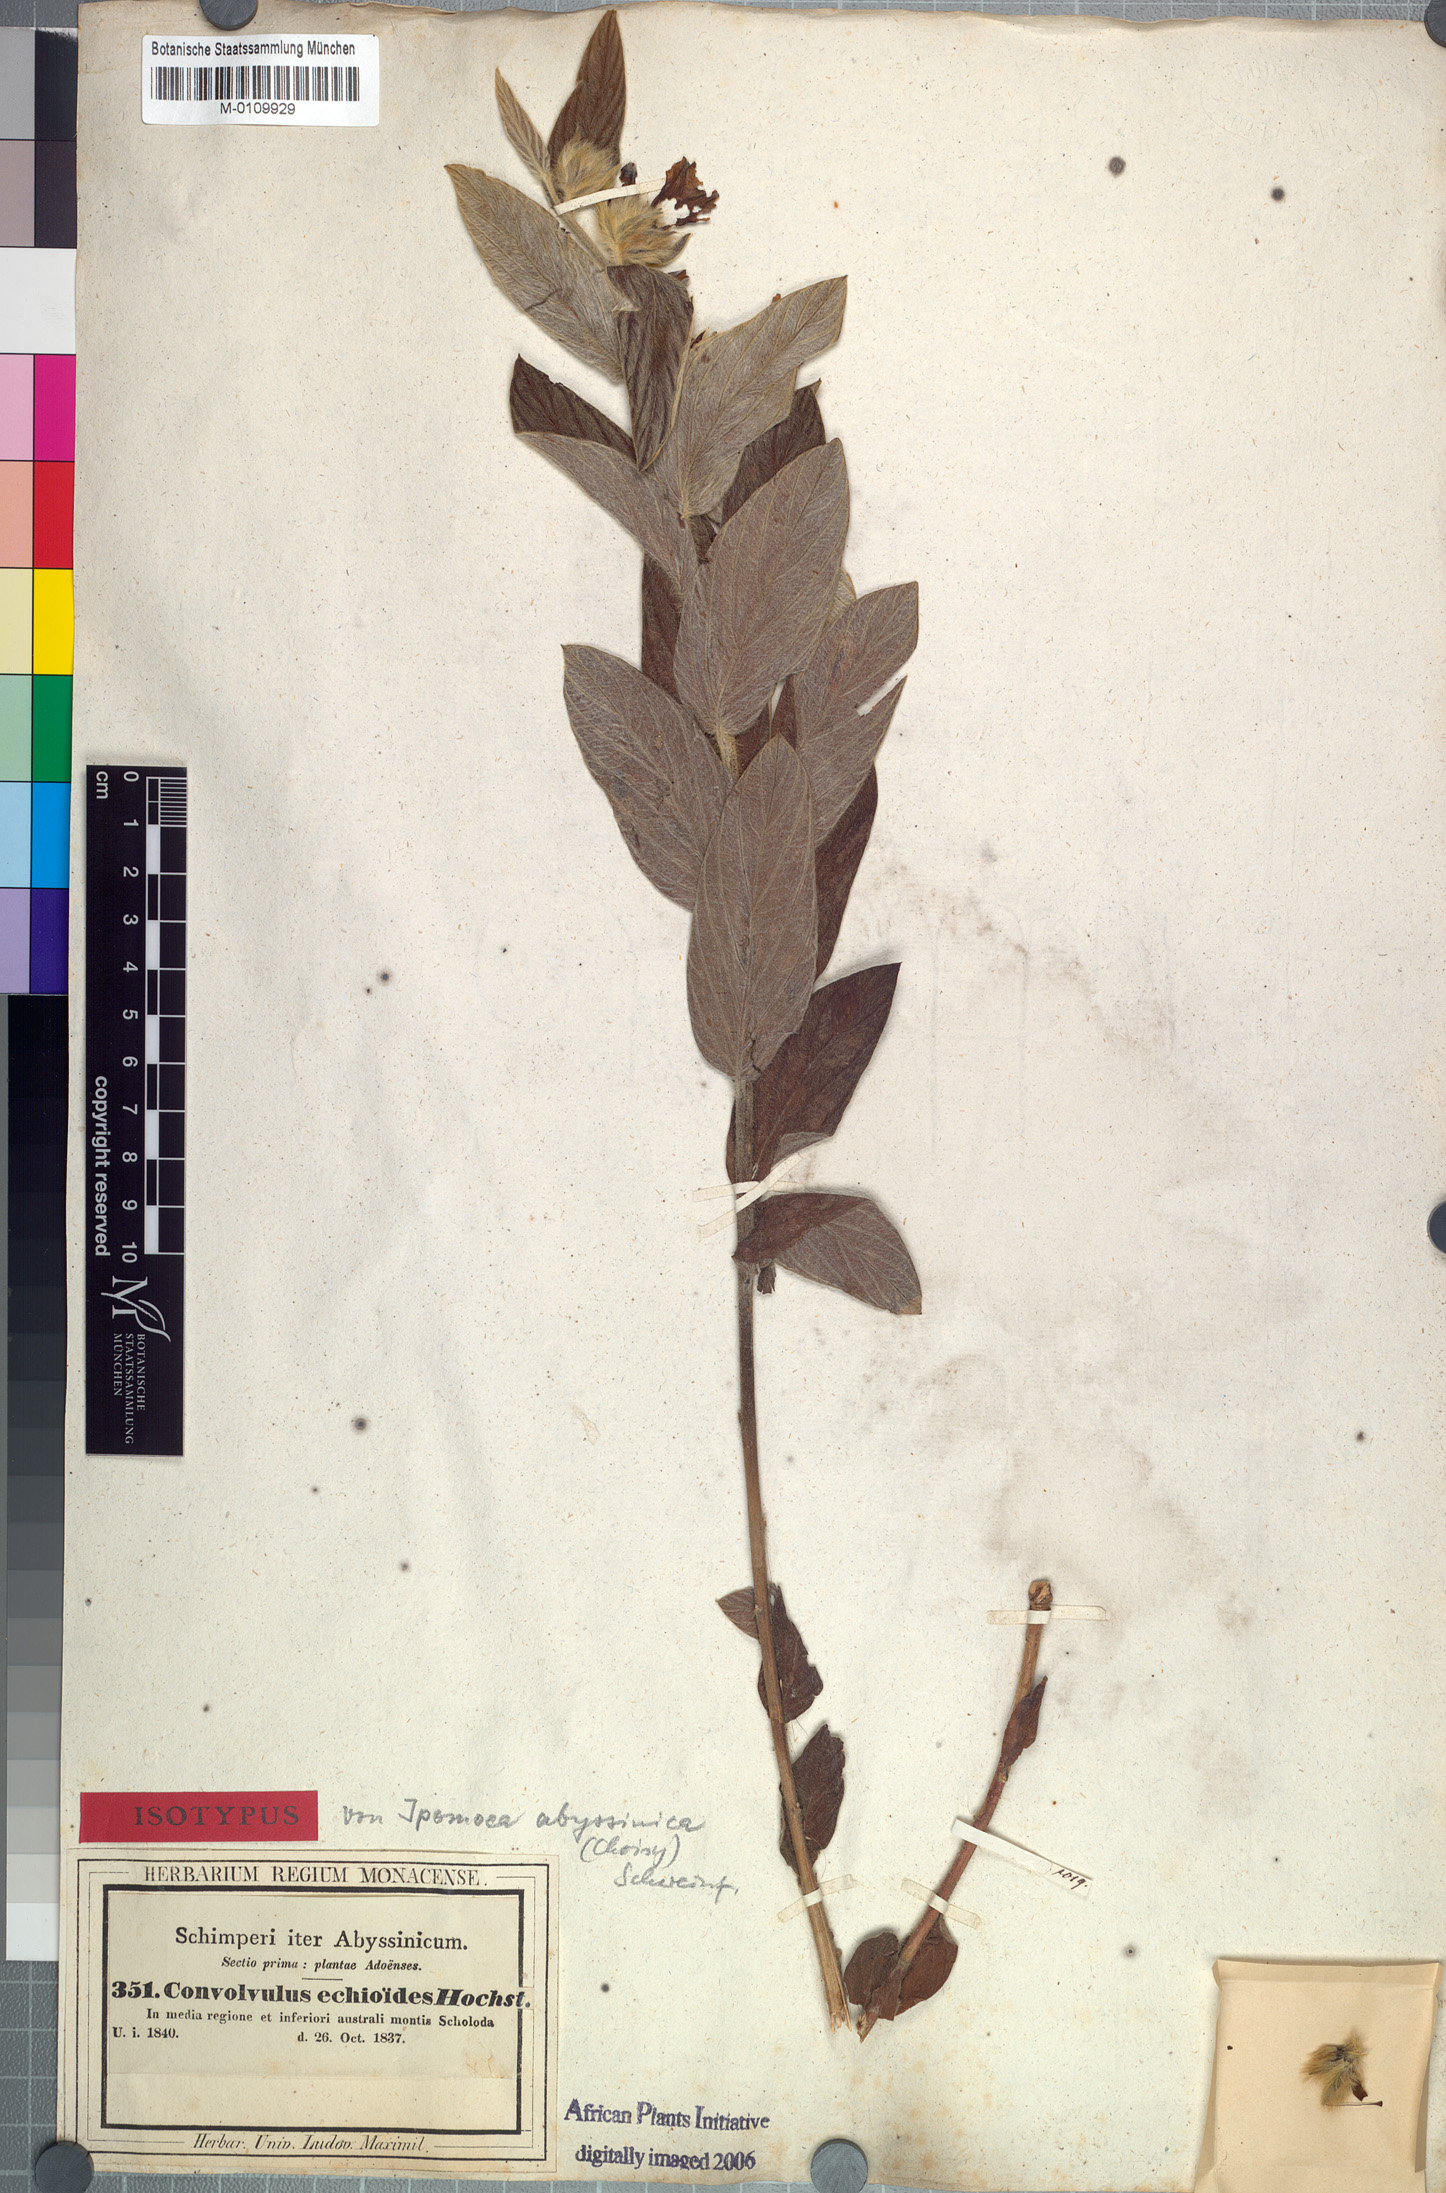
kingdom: Plantae
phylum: Tracheophyta
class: Magnoliopsida
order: Solanales
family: Convolvulaceae
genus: Ipomoea
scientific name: Ipomoea abyssinica
